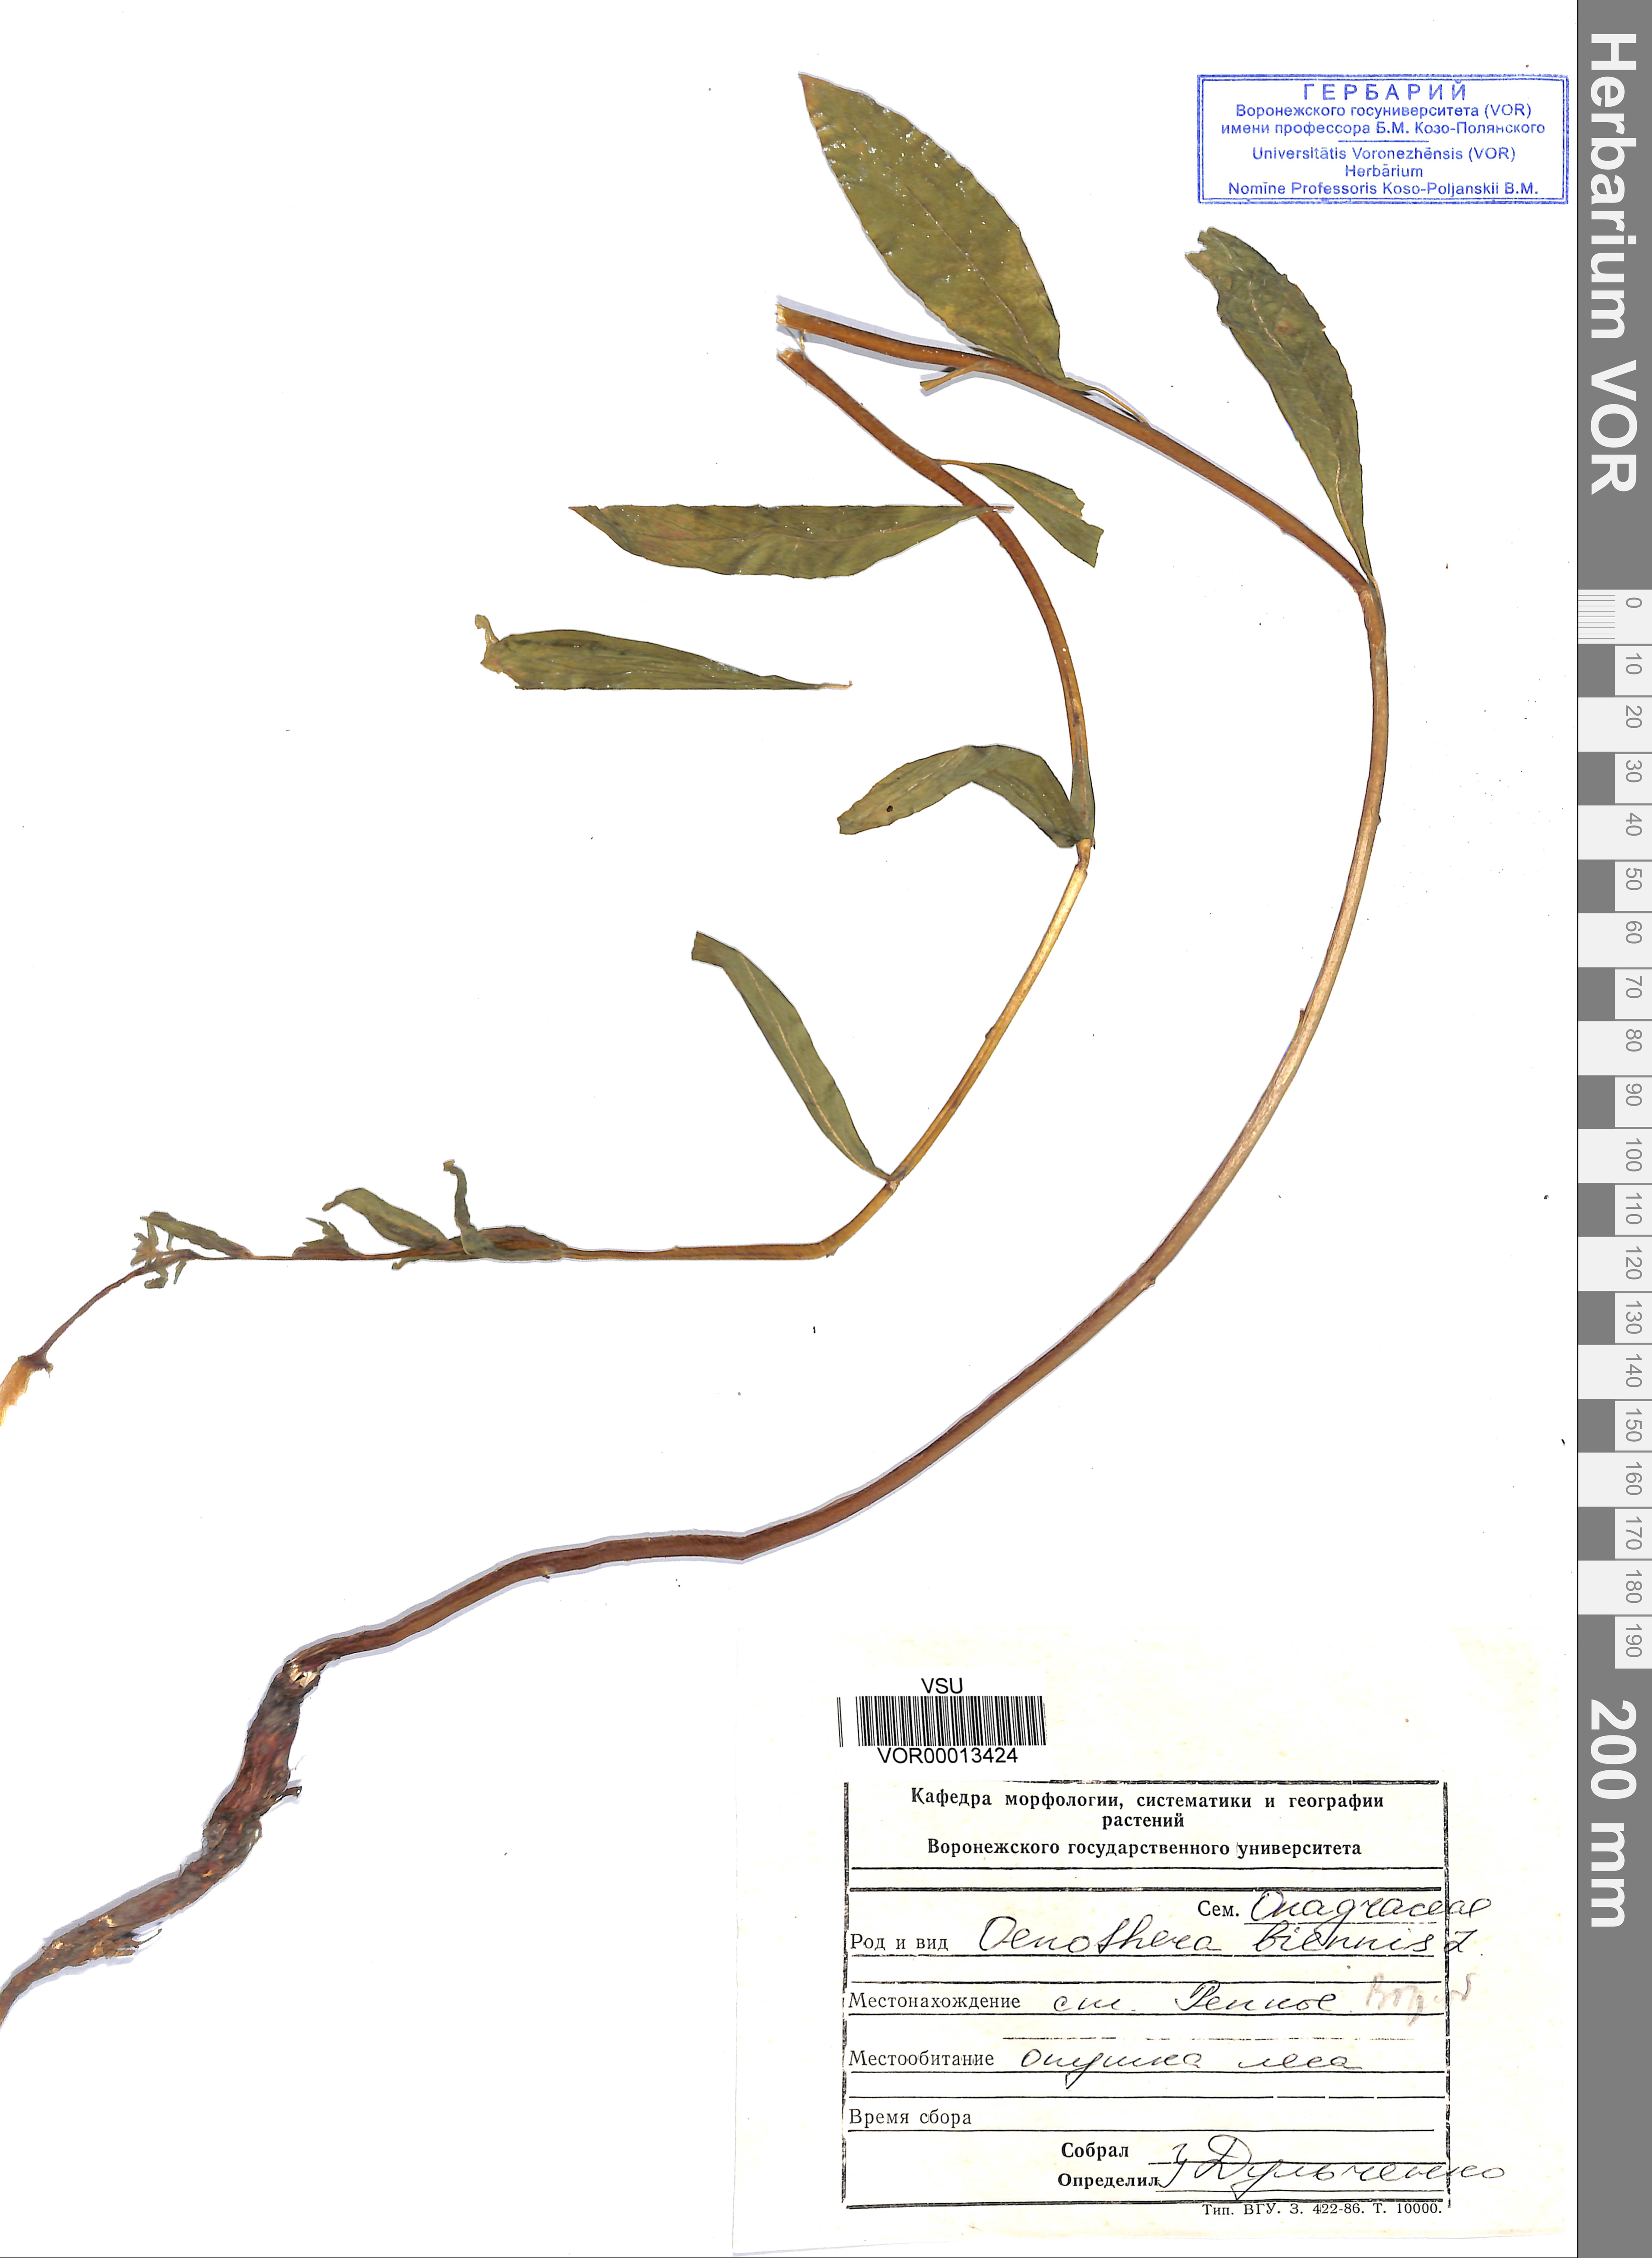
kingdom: Plantae
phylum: Tracheophyta
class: Magnoliopsida
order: Myrtales
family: Onagraceae
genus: Oenothera
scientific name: Oenothera biennis
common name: Common evening-primrose
